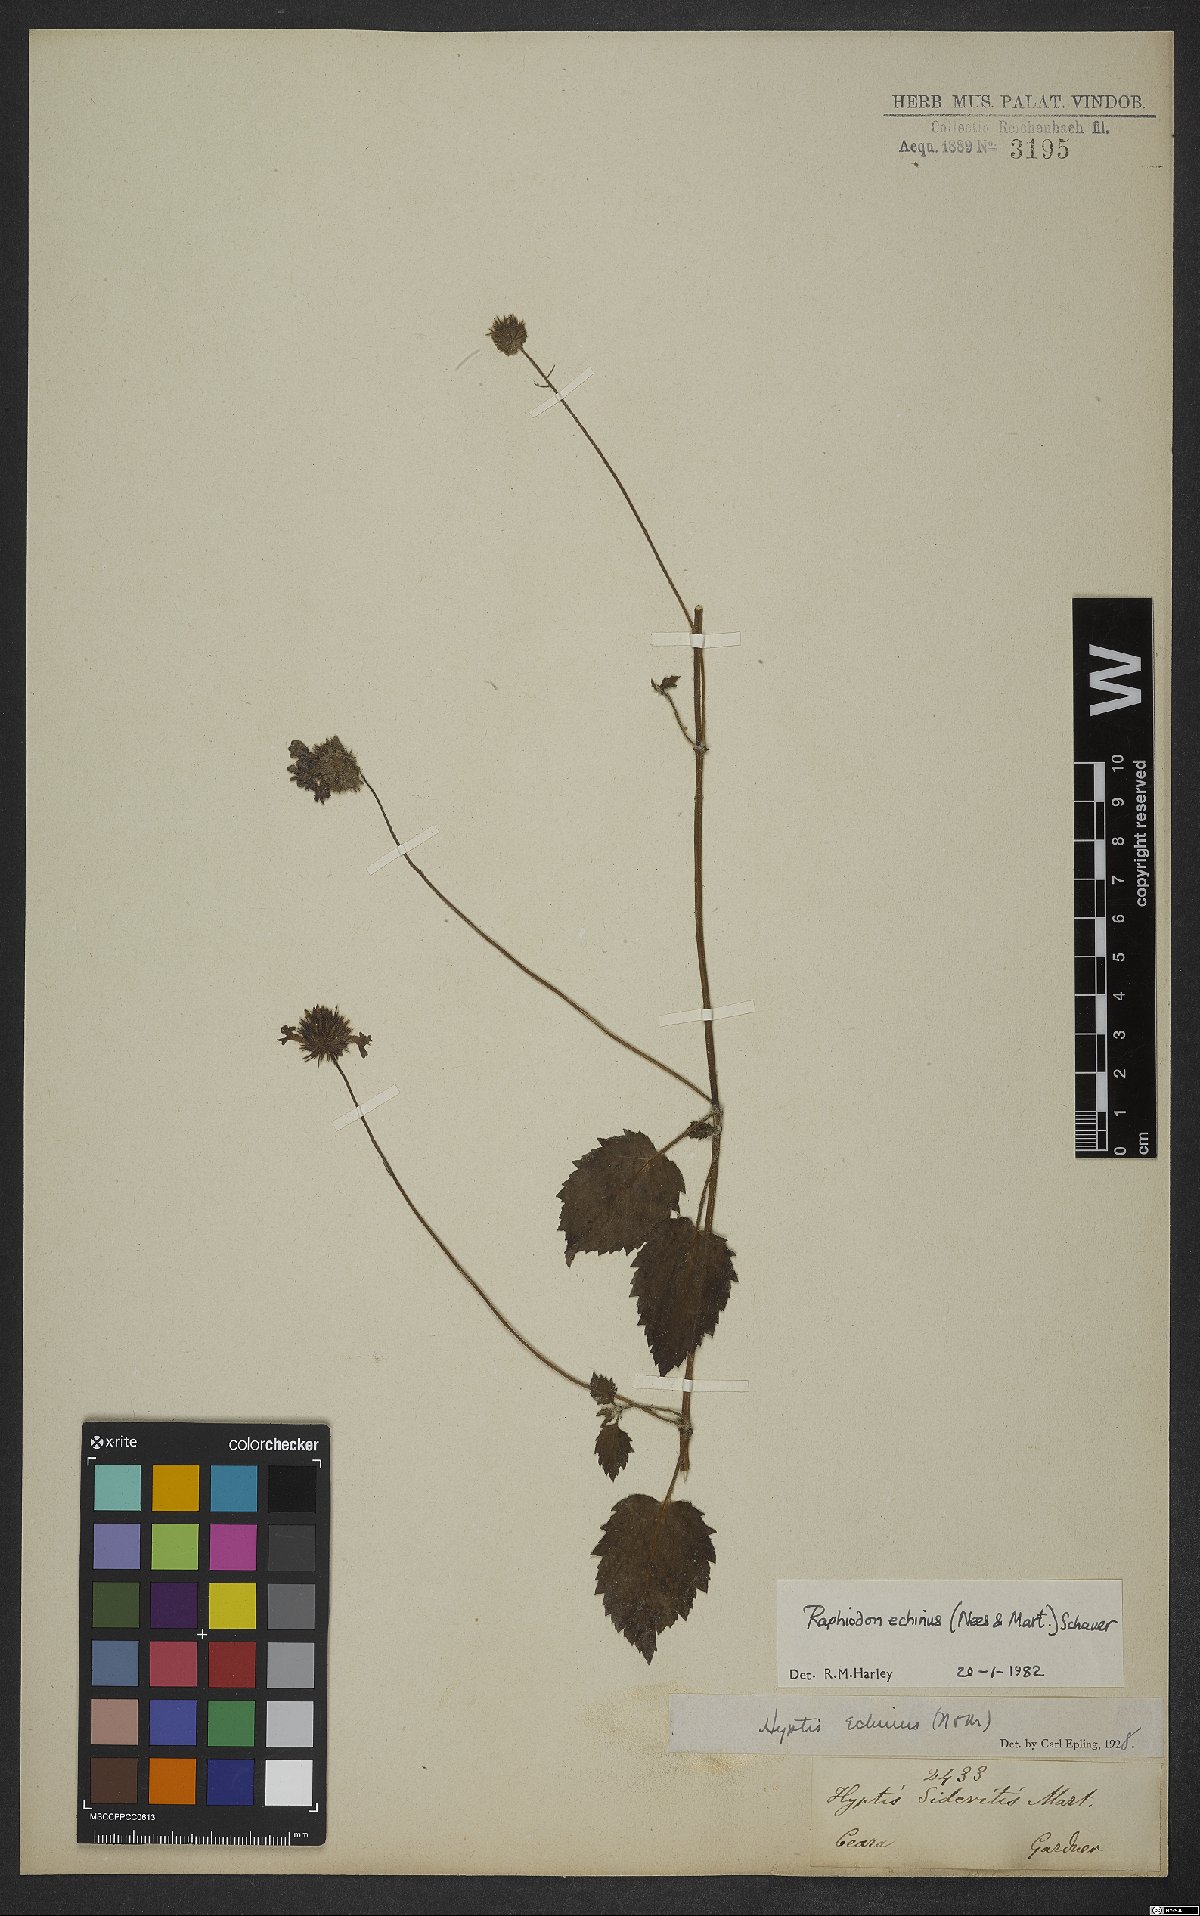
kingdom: Plantae
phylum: Tracheophyta
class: Magnoliopsida
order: Lamiales
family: Lamiaceae
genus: Rhaphiodon
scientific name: Rhaphiodon echinus
